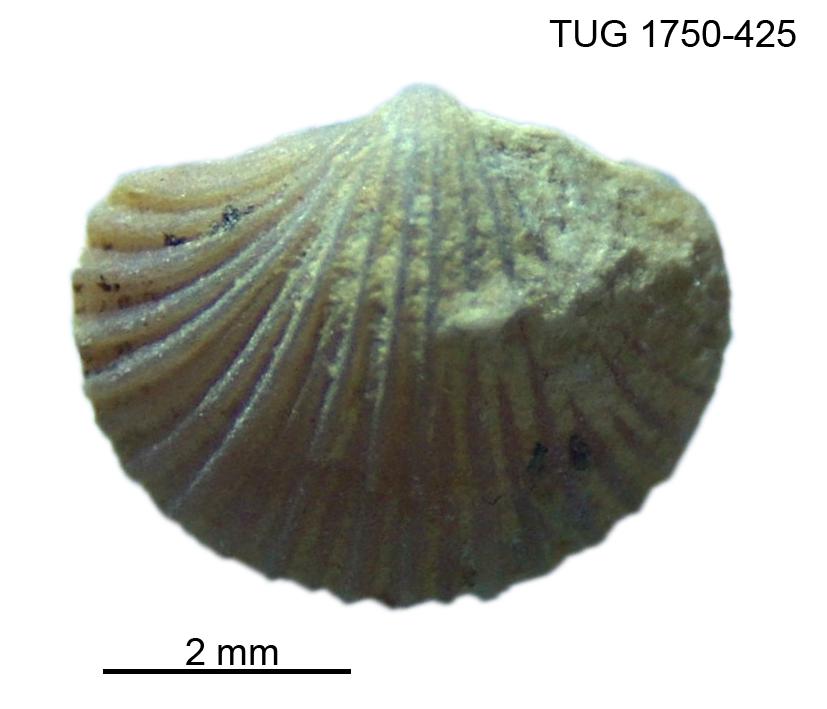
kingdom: Animalia
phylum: Brachiopoda
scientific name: Brachiopoda
